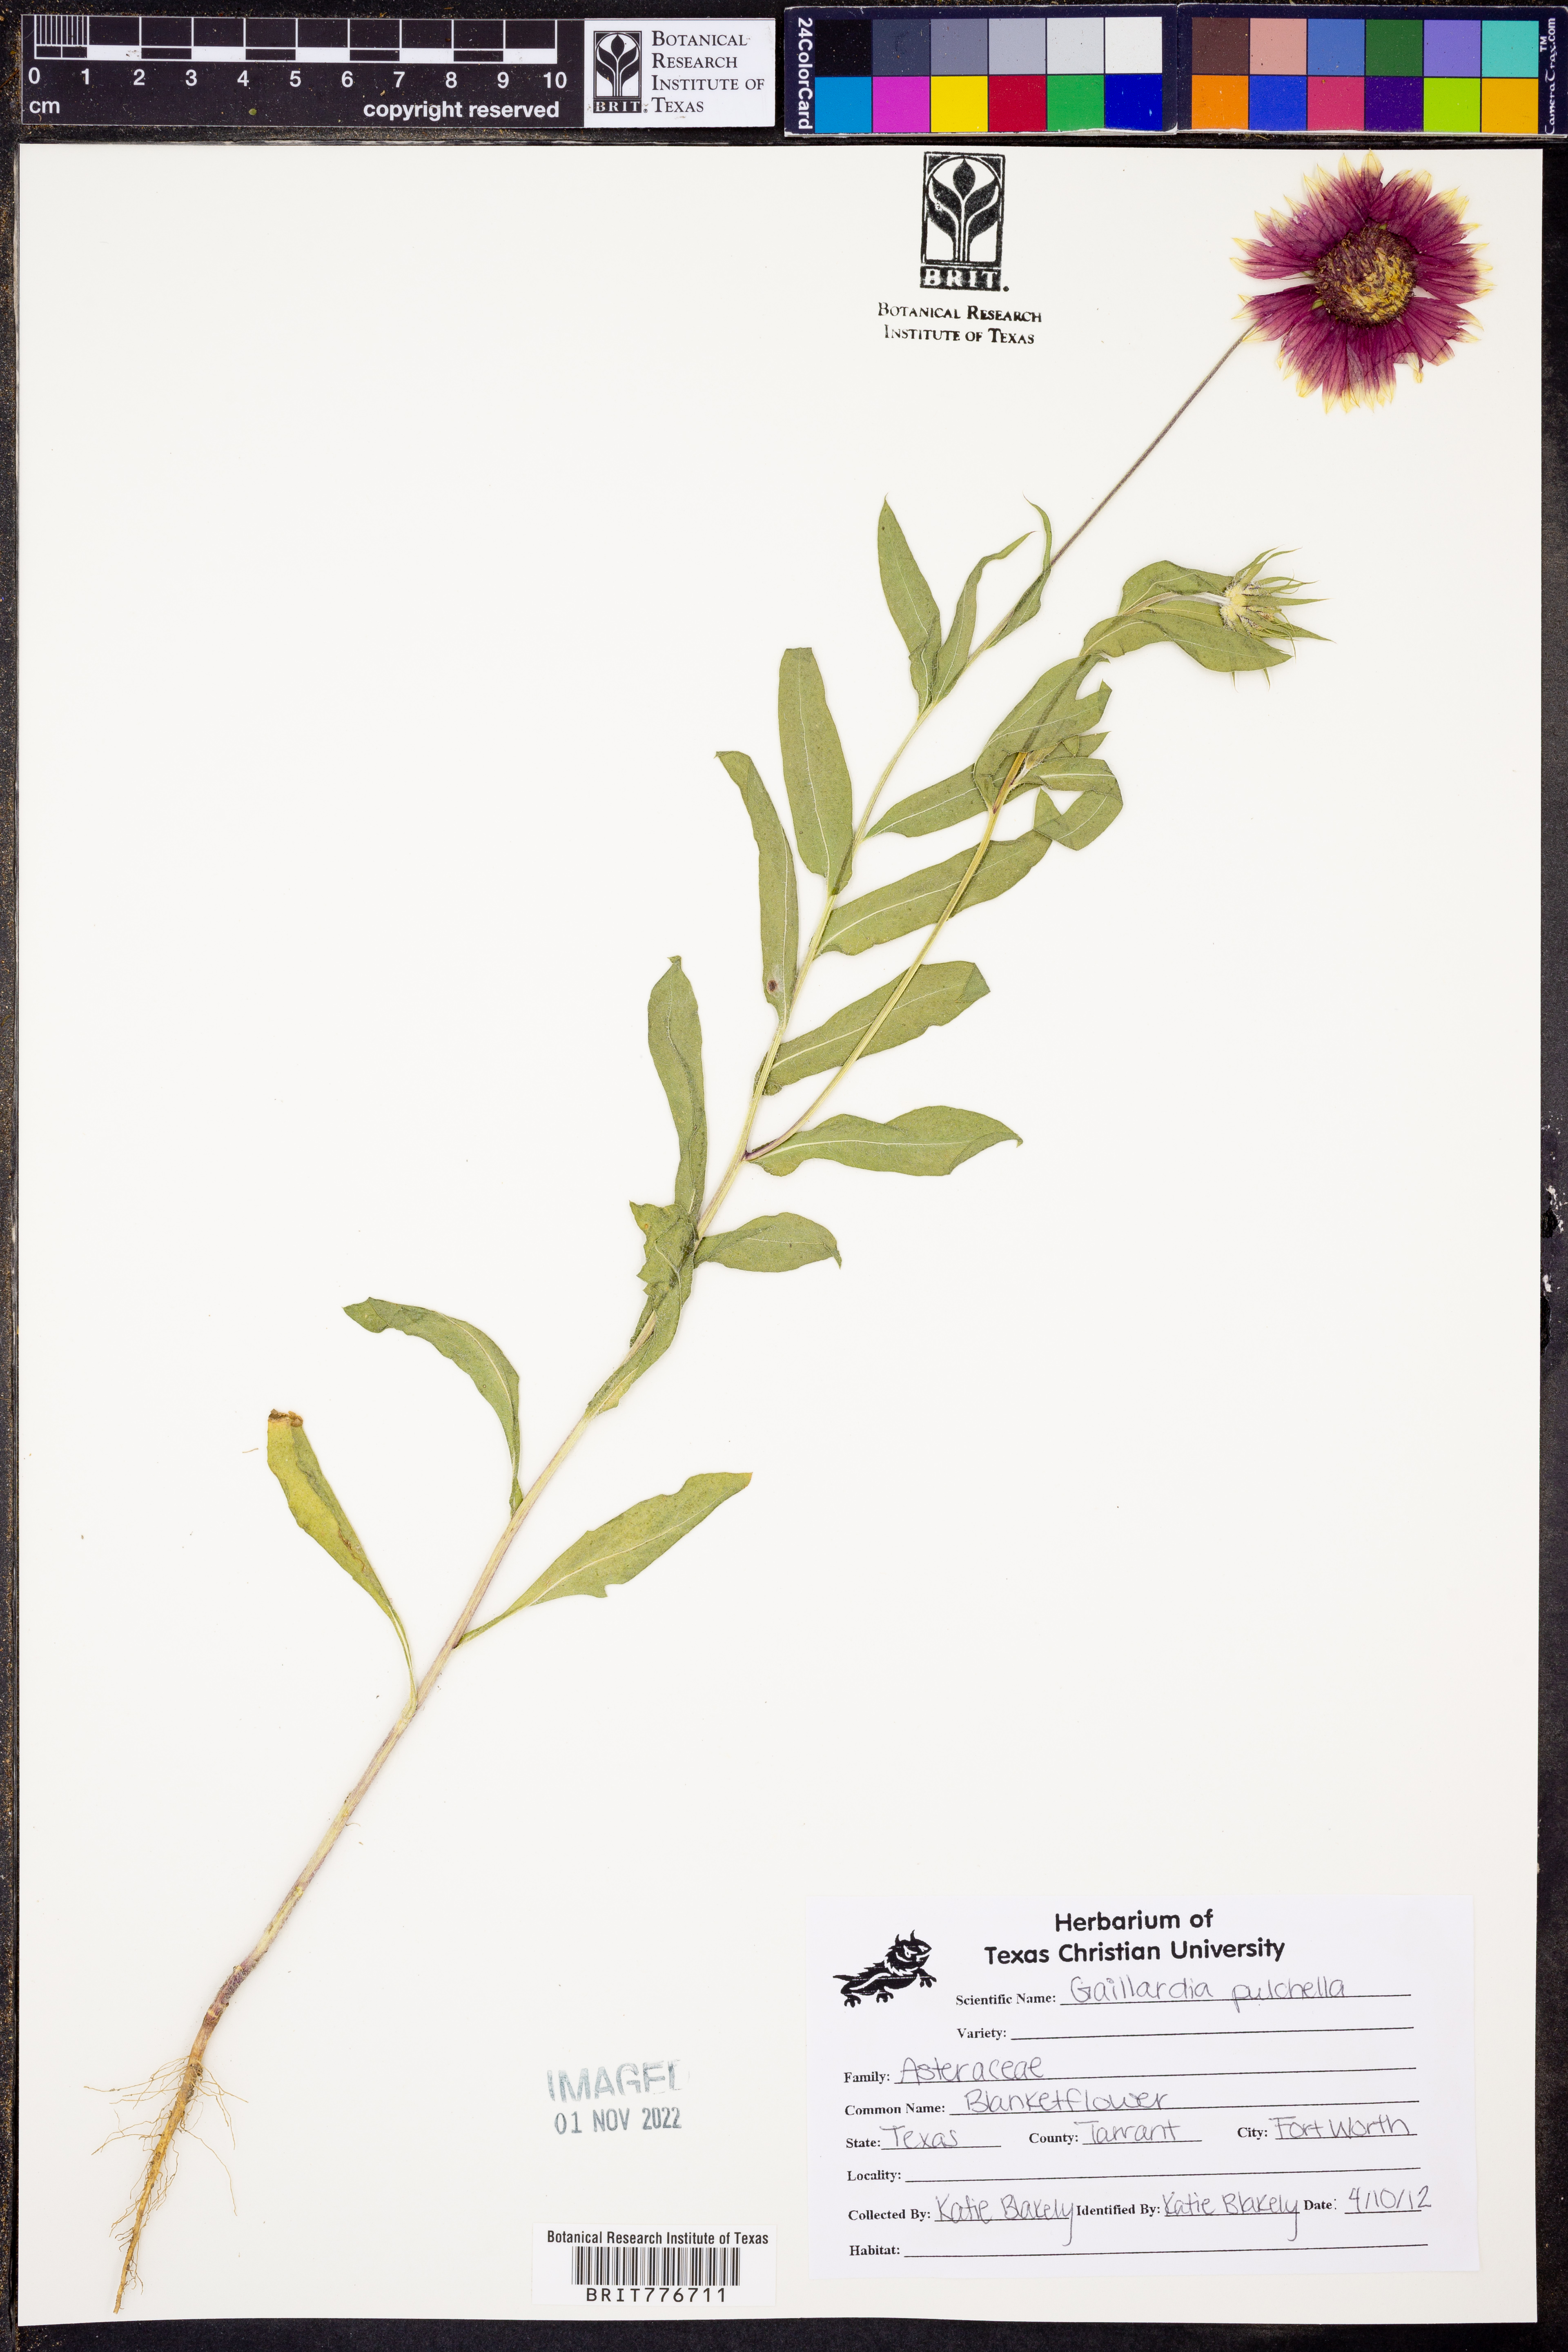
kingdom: Plantae
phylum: Tracheophyta
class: Magnoliopsida
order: Asterales
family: Asteraceae
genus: Gaillardia
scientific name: Gaillardia pulchella
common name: Firewheel
